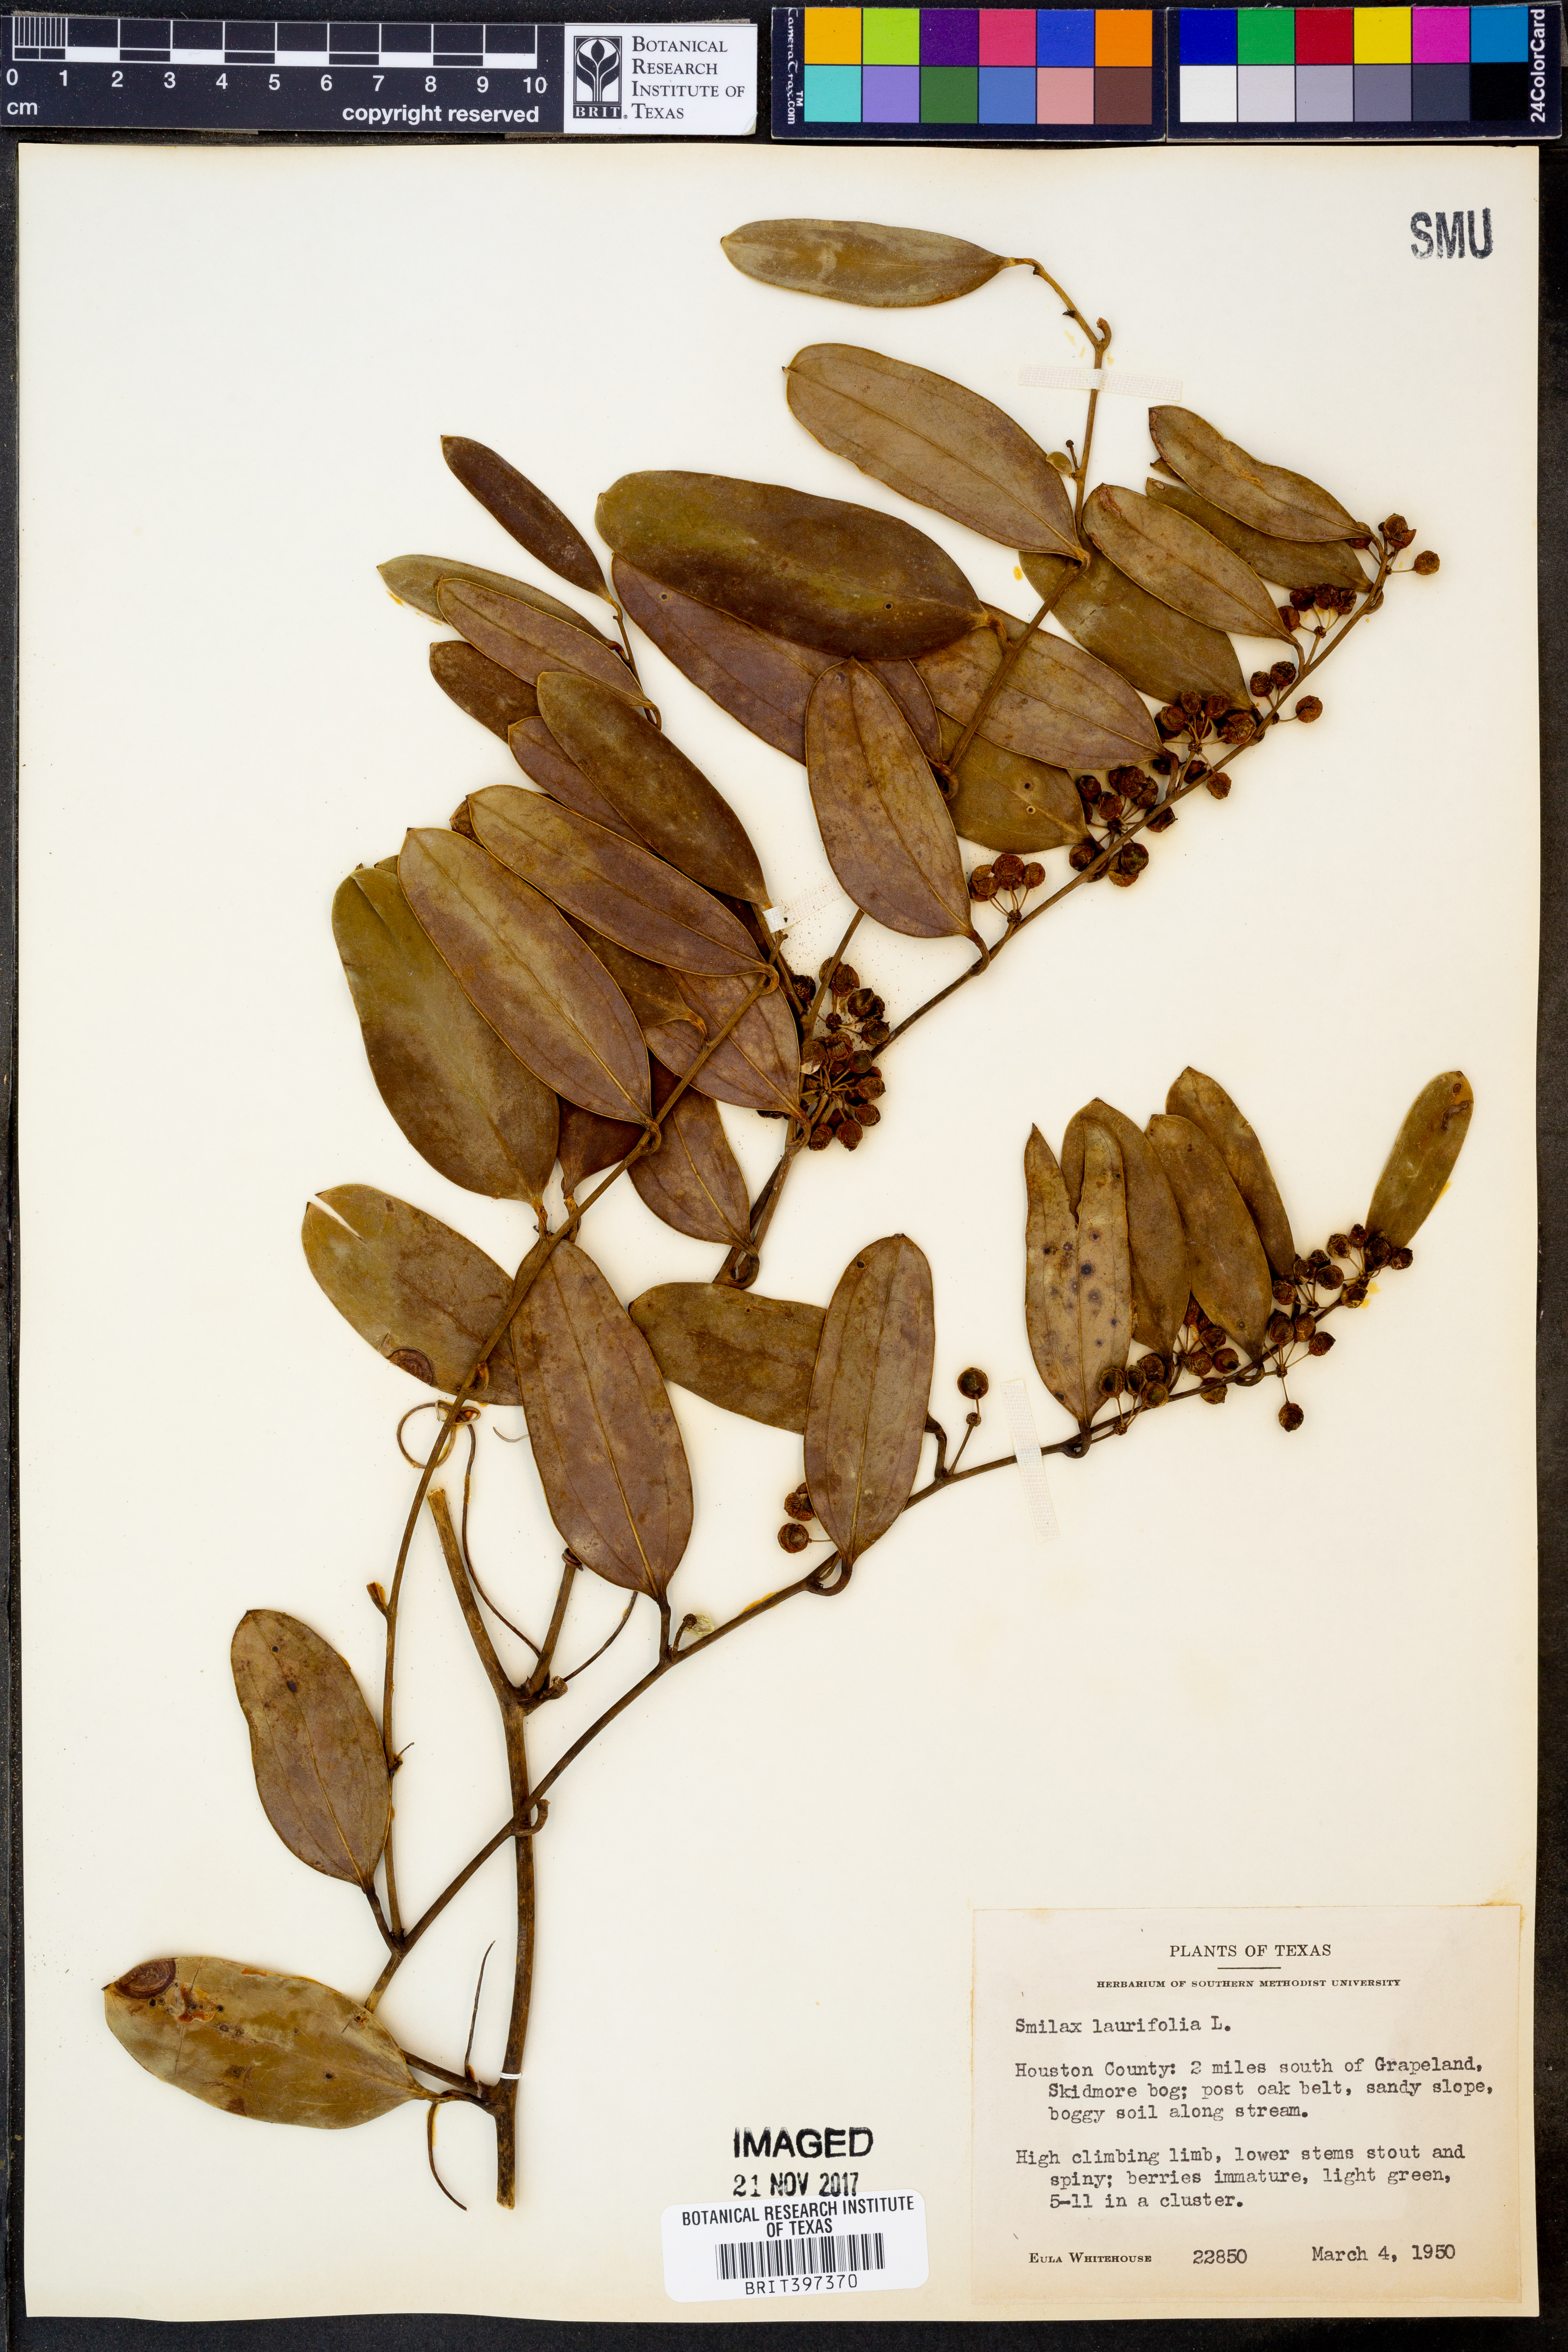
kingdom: Plantae
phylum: Tracheophyta
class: Liliopsida
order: Liliales
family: Smilacaceae
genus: Smilax
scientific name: Smilax laurifolia
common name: Bamboovine
